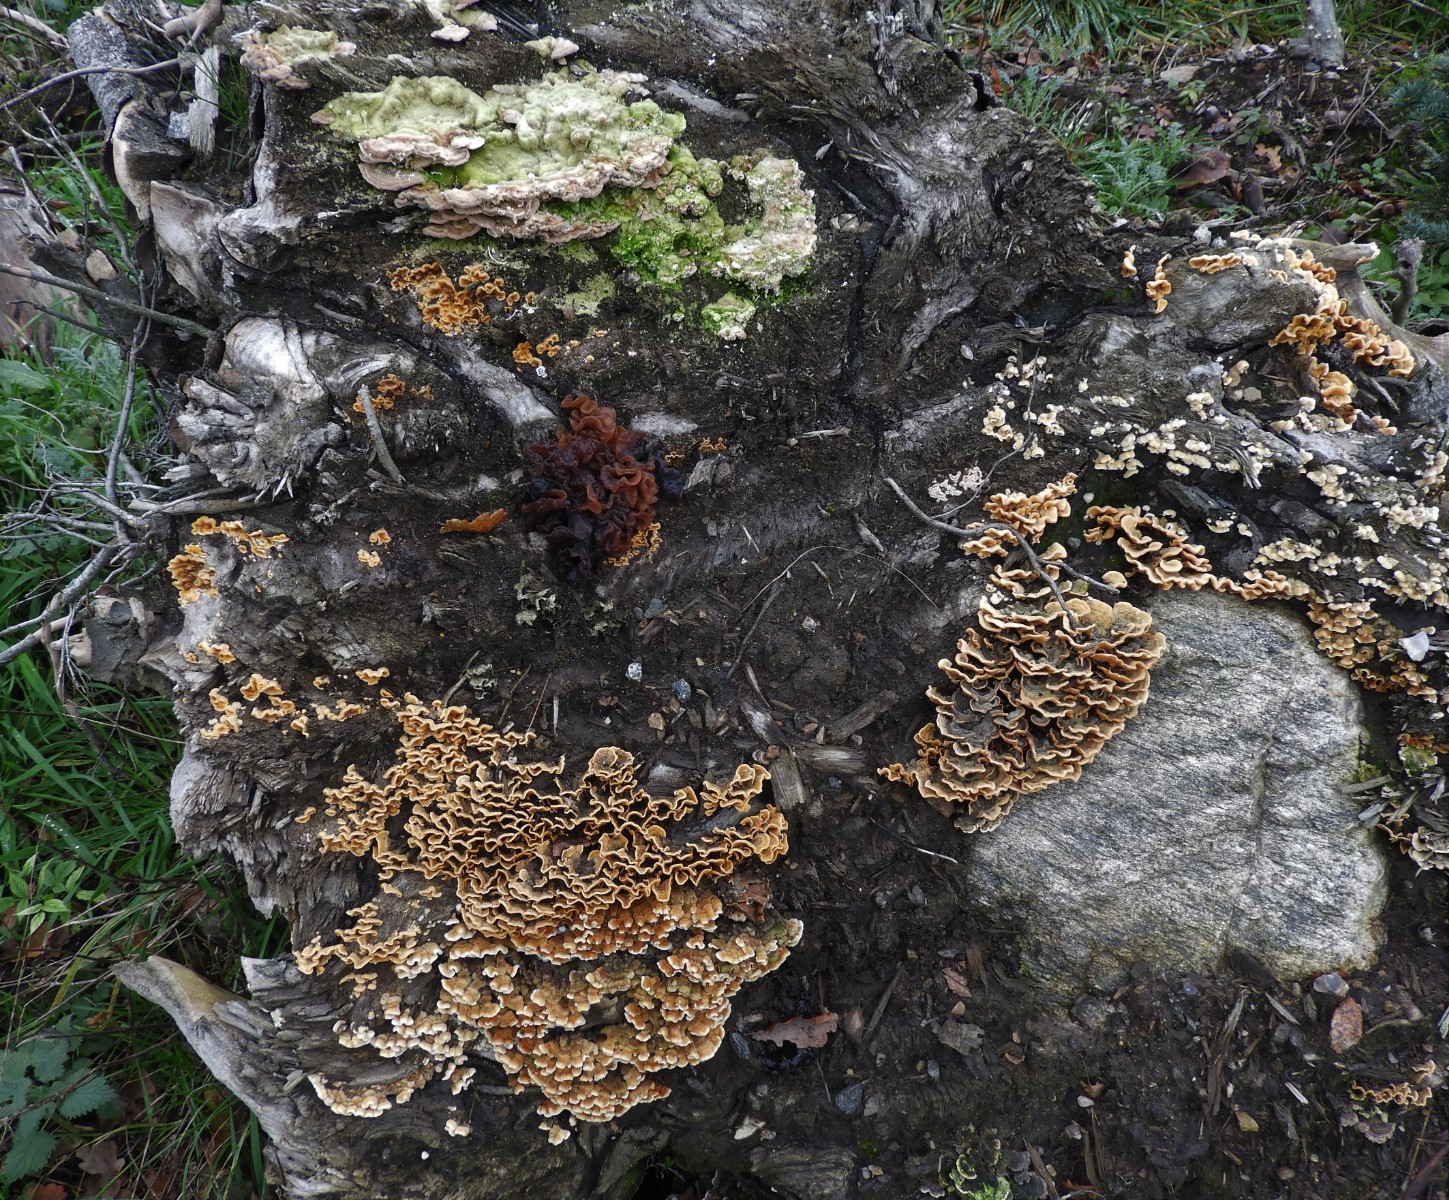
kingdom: Fungi
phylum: Basidiomycota
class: Agaricomycetes
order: Polyporales
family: Polyporaceae
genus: Lenzites
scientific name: Lenzites betulinus
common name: birke-læderporesvamp
